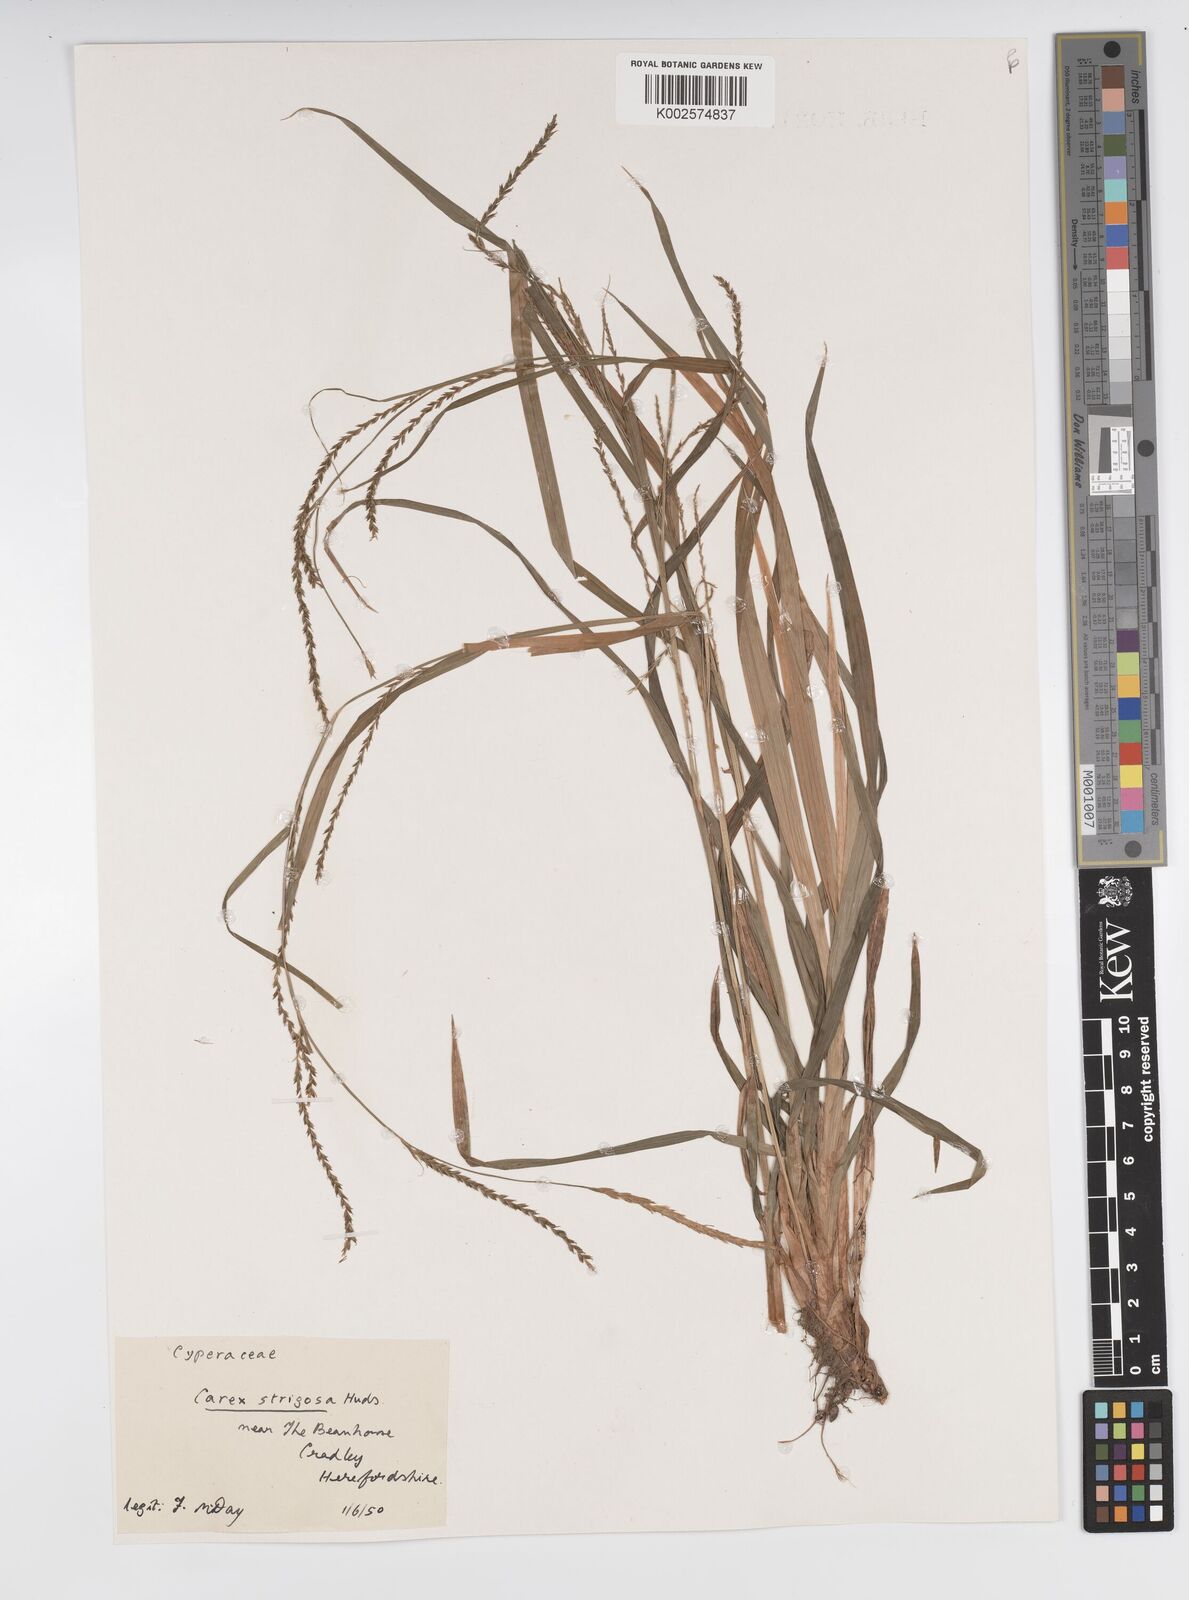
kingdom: Plantae
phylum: Tracheophyta
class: Liliopsida
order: Poales
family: Cyperaceae
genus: Carex
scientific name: Carex strigosa
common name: Thin-spiked wood-sedge
